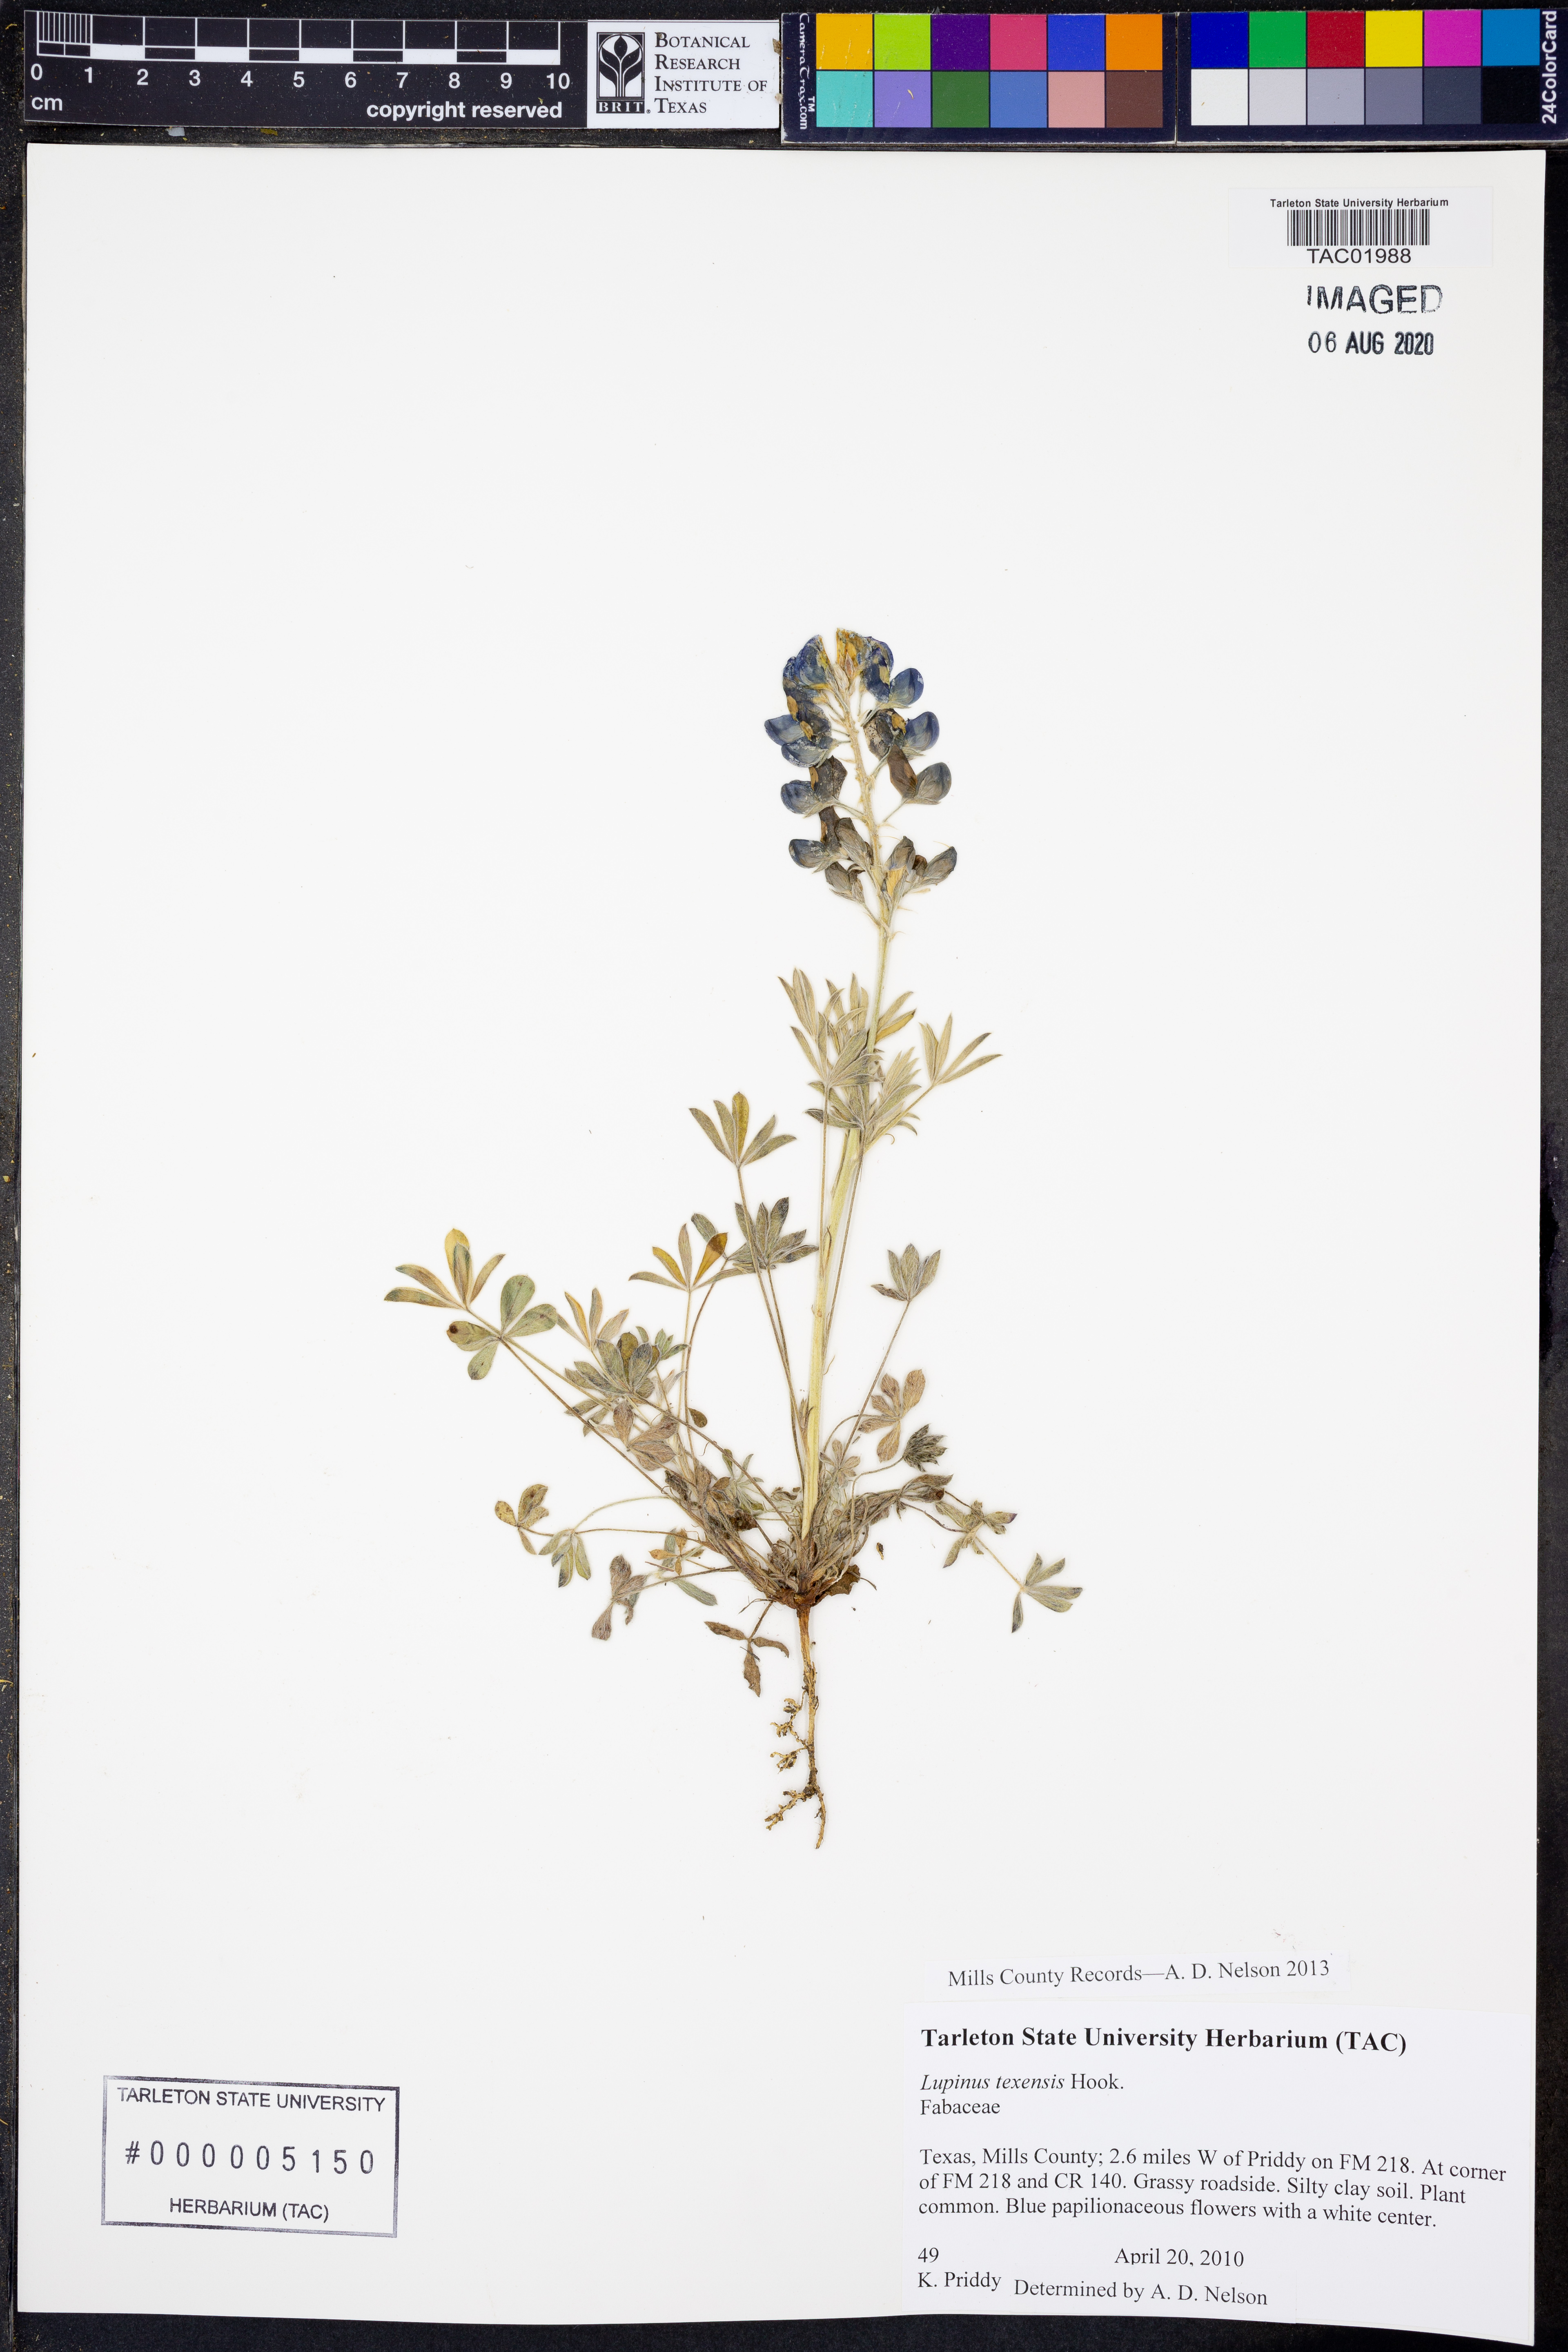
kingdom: Plantae
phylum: Tracheophyta
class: Magnoliopsida
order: Fabales
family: Fabaceae
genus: Lupinus
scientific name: Lupinus texensis
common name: Texas bluebonnet
